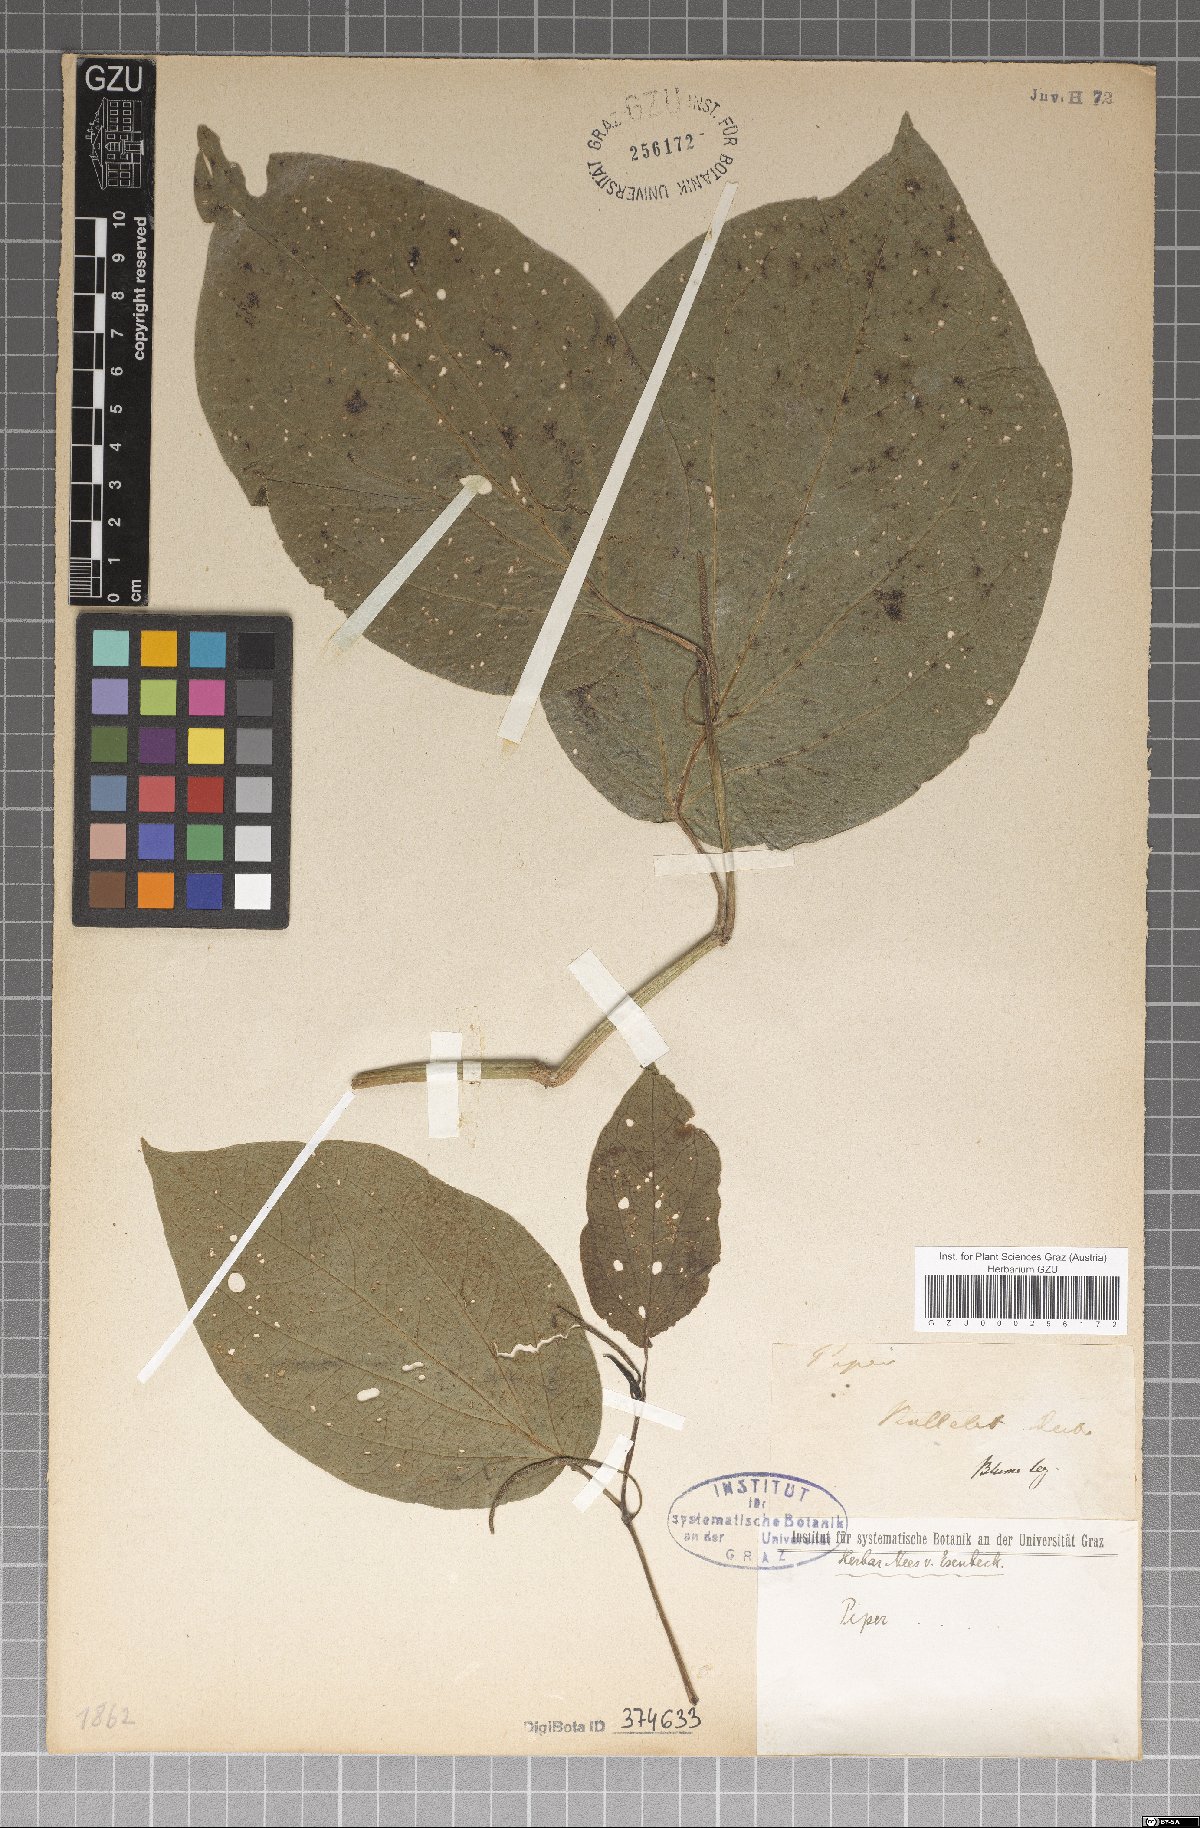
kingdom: Plantae
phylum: Tracheophyta
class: Magnoliopsida
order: Piperales
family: Piperaceae
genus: Piper
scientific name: Piper
